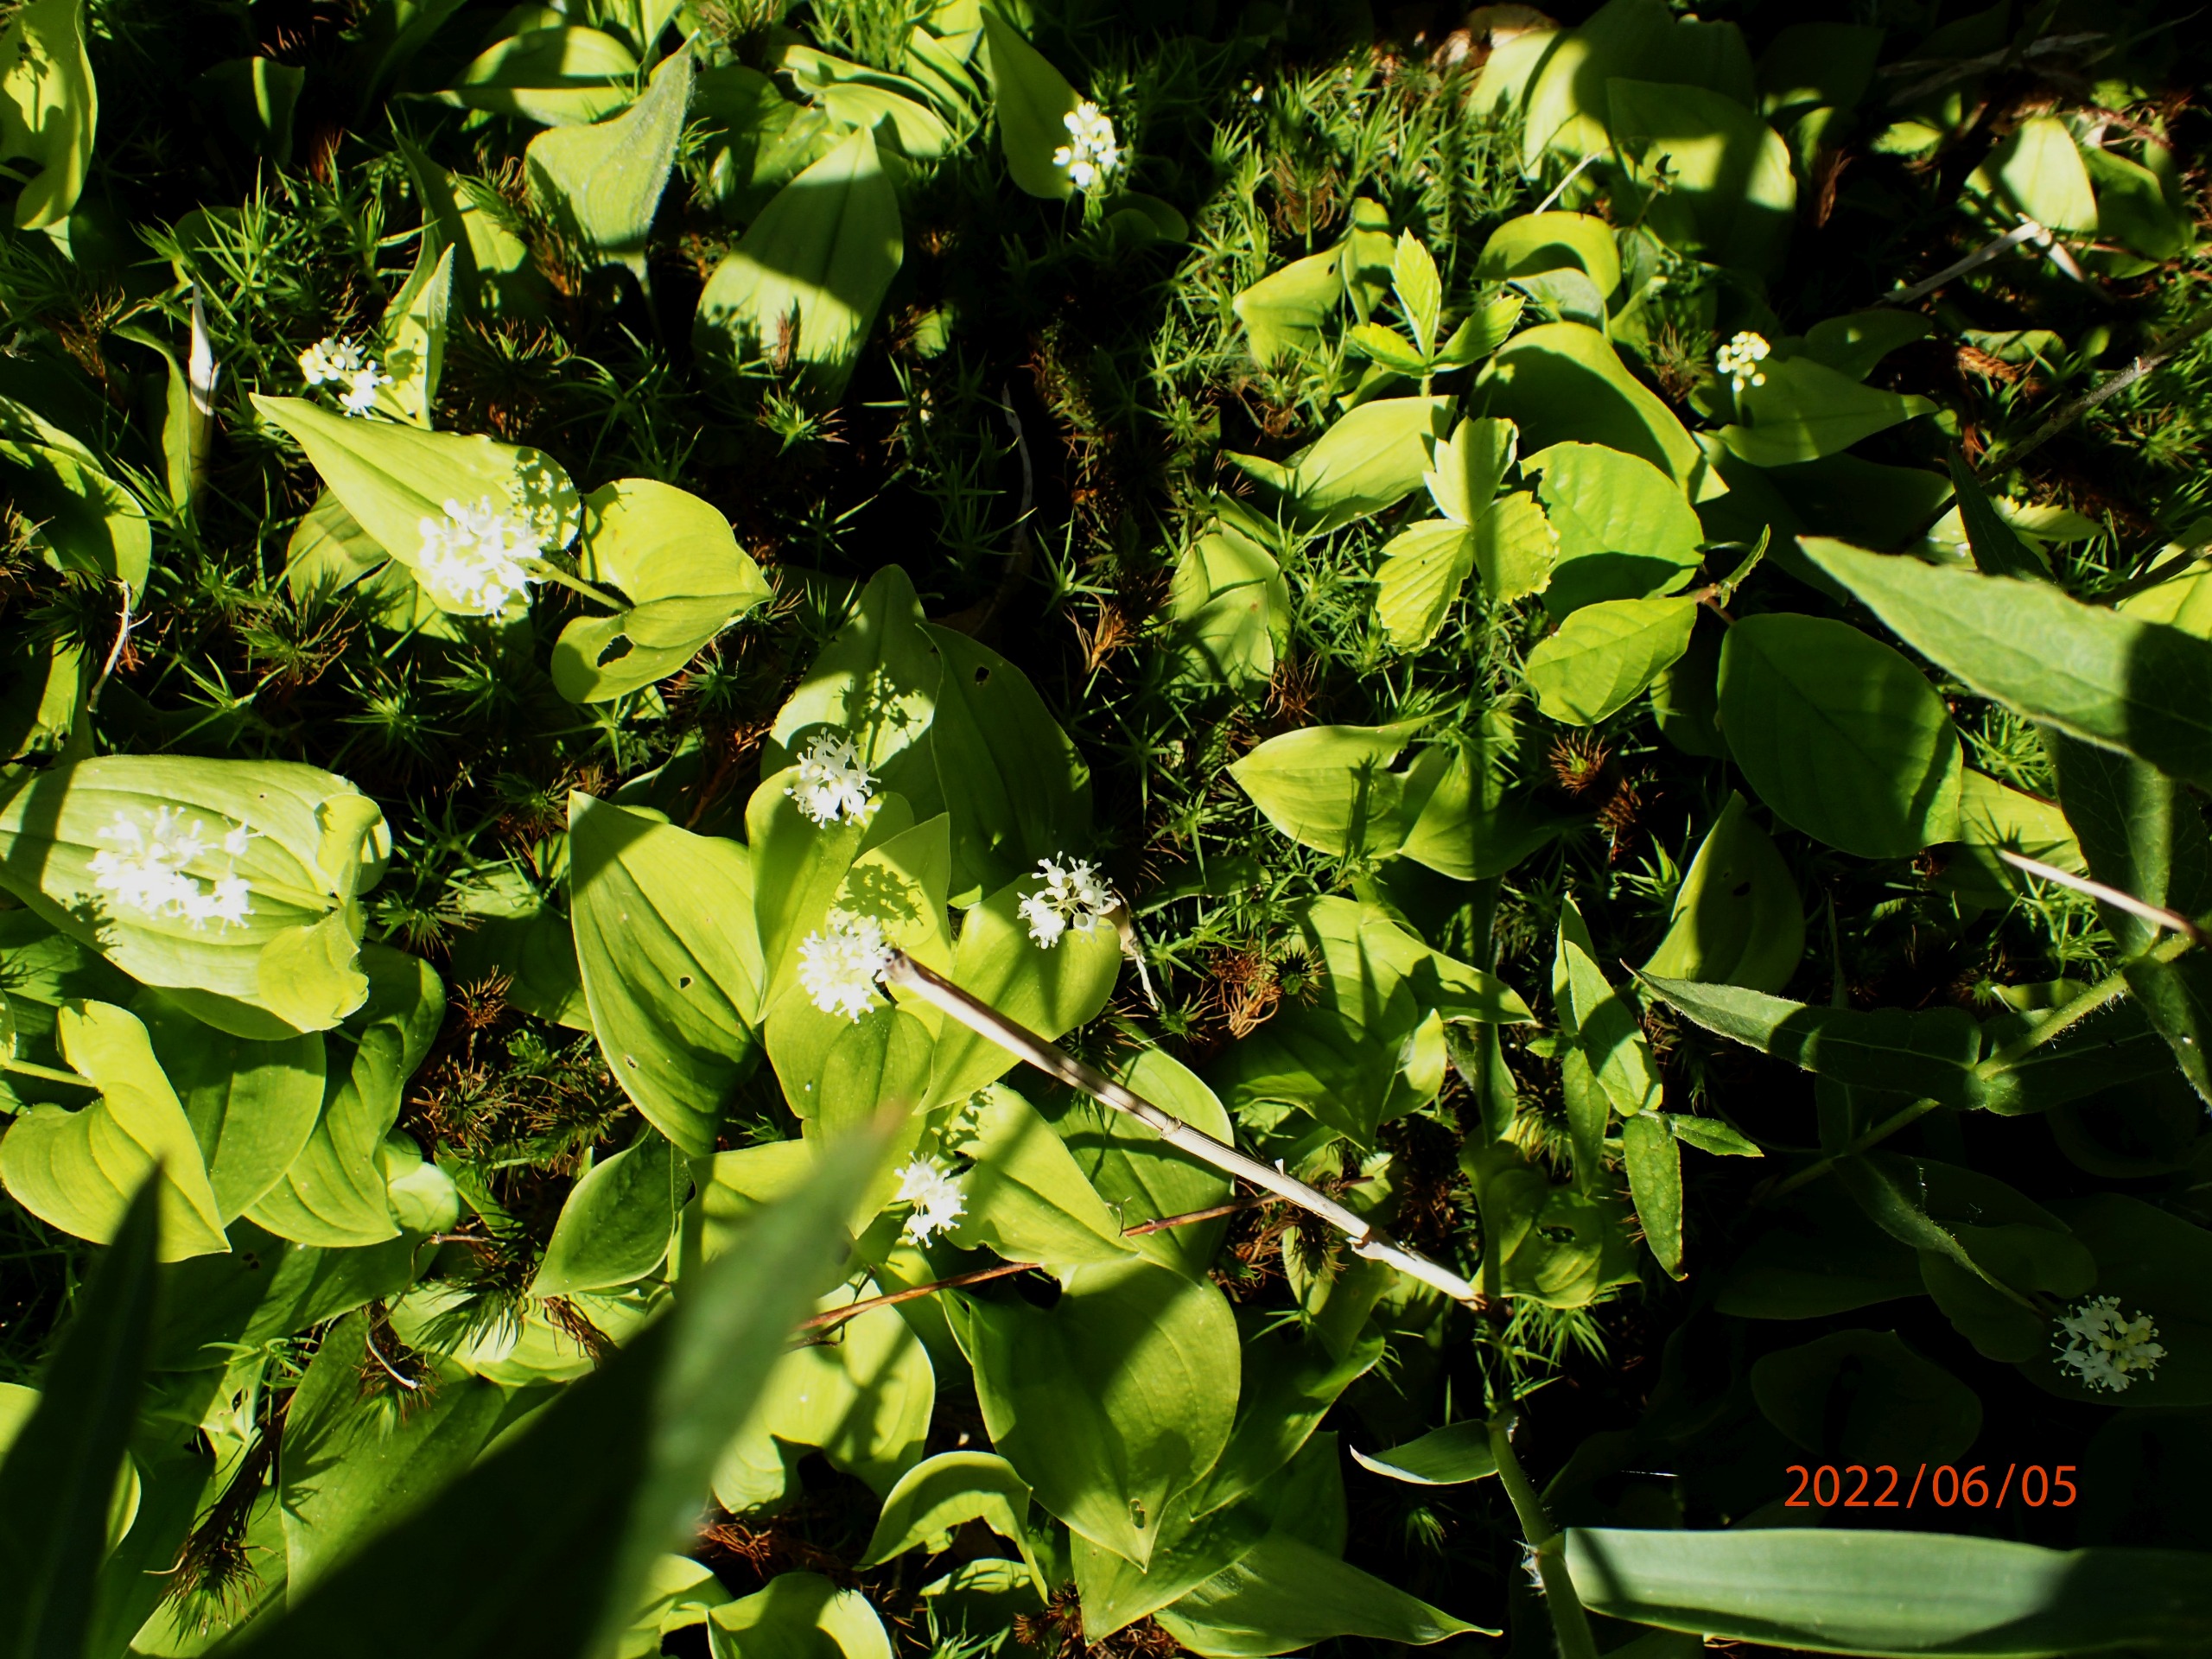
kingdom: Plantae
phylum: Tracheophyta
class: Liliopsida
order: Asparagales
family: Asparagaceae
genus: Maianthemum
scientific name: Maianthemum bifolium
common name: Majblomst
